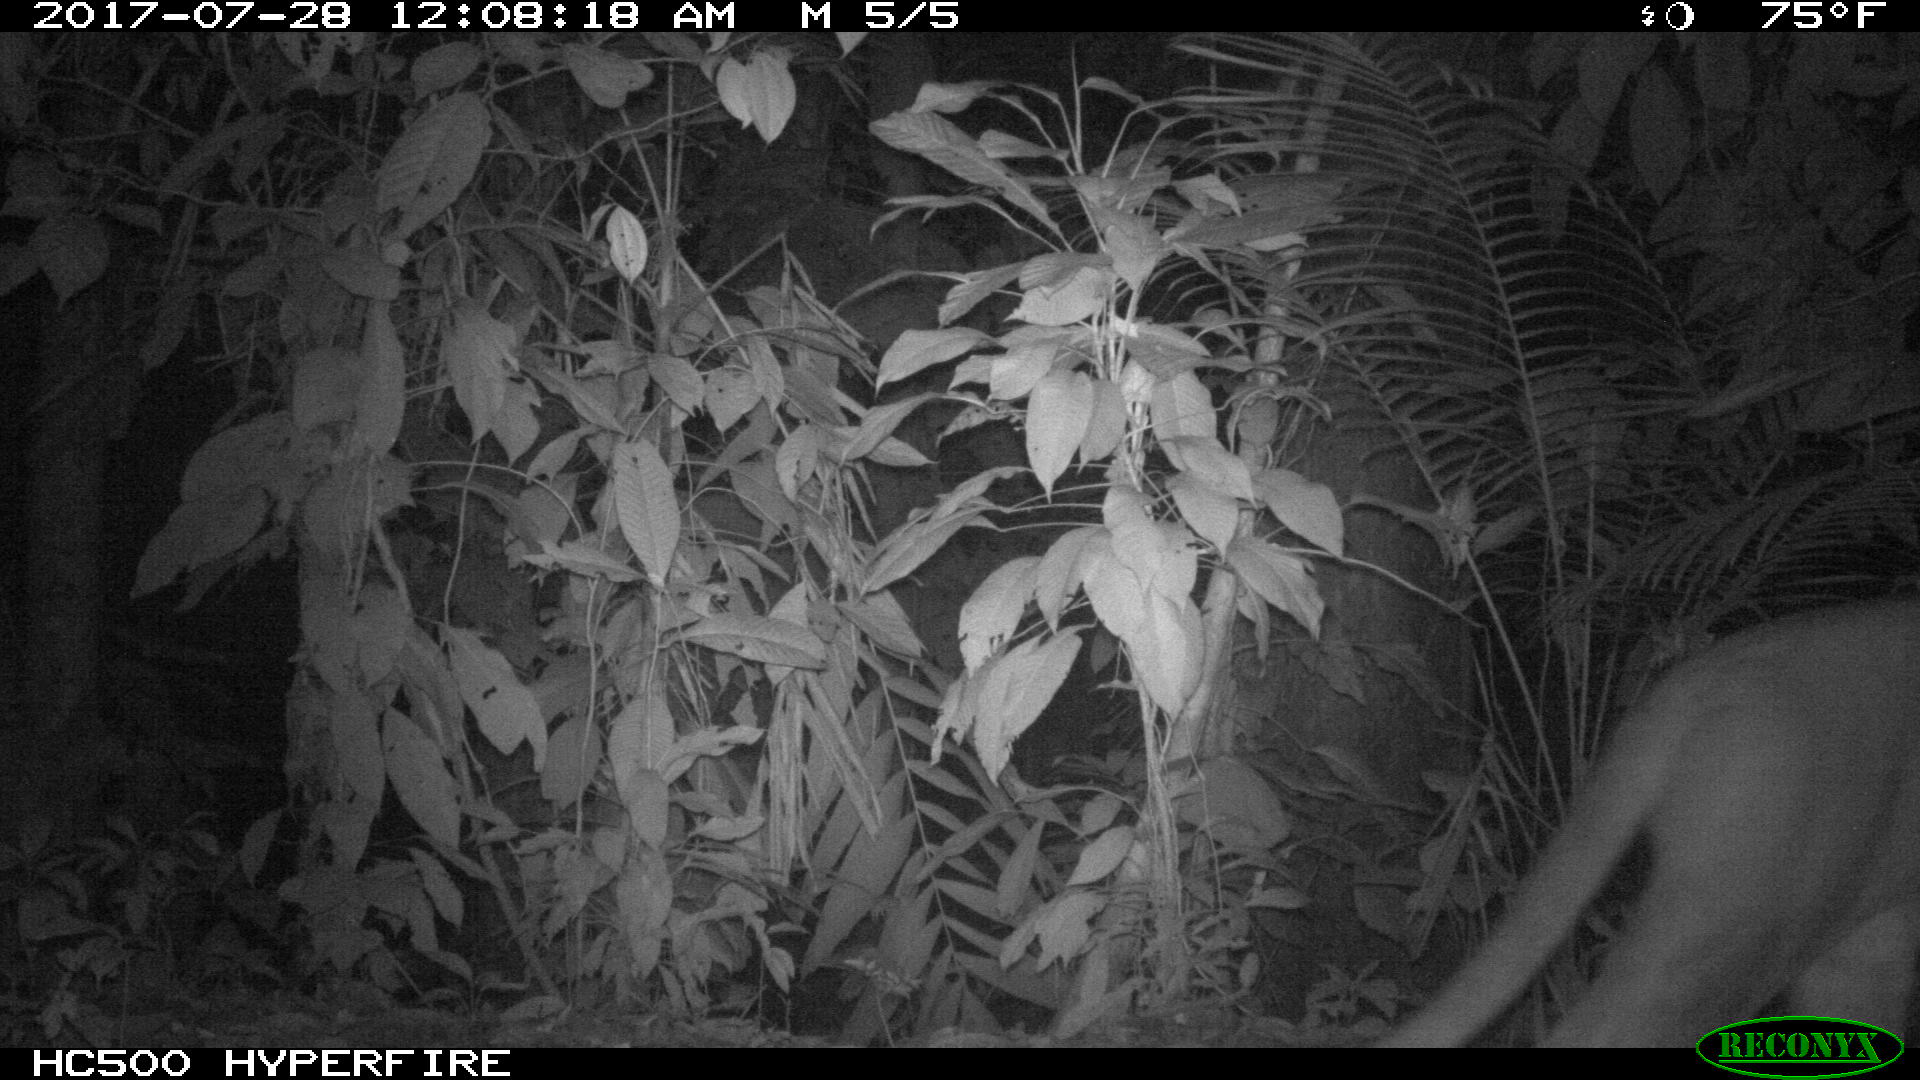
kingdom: Animalia
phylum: Chordata
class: Mammalia
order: Carnivora
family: Felidae
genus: Puma
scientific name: Puma concolor
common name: Puma
